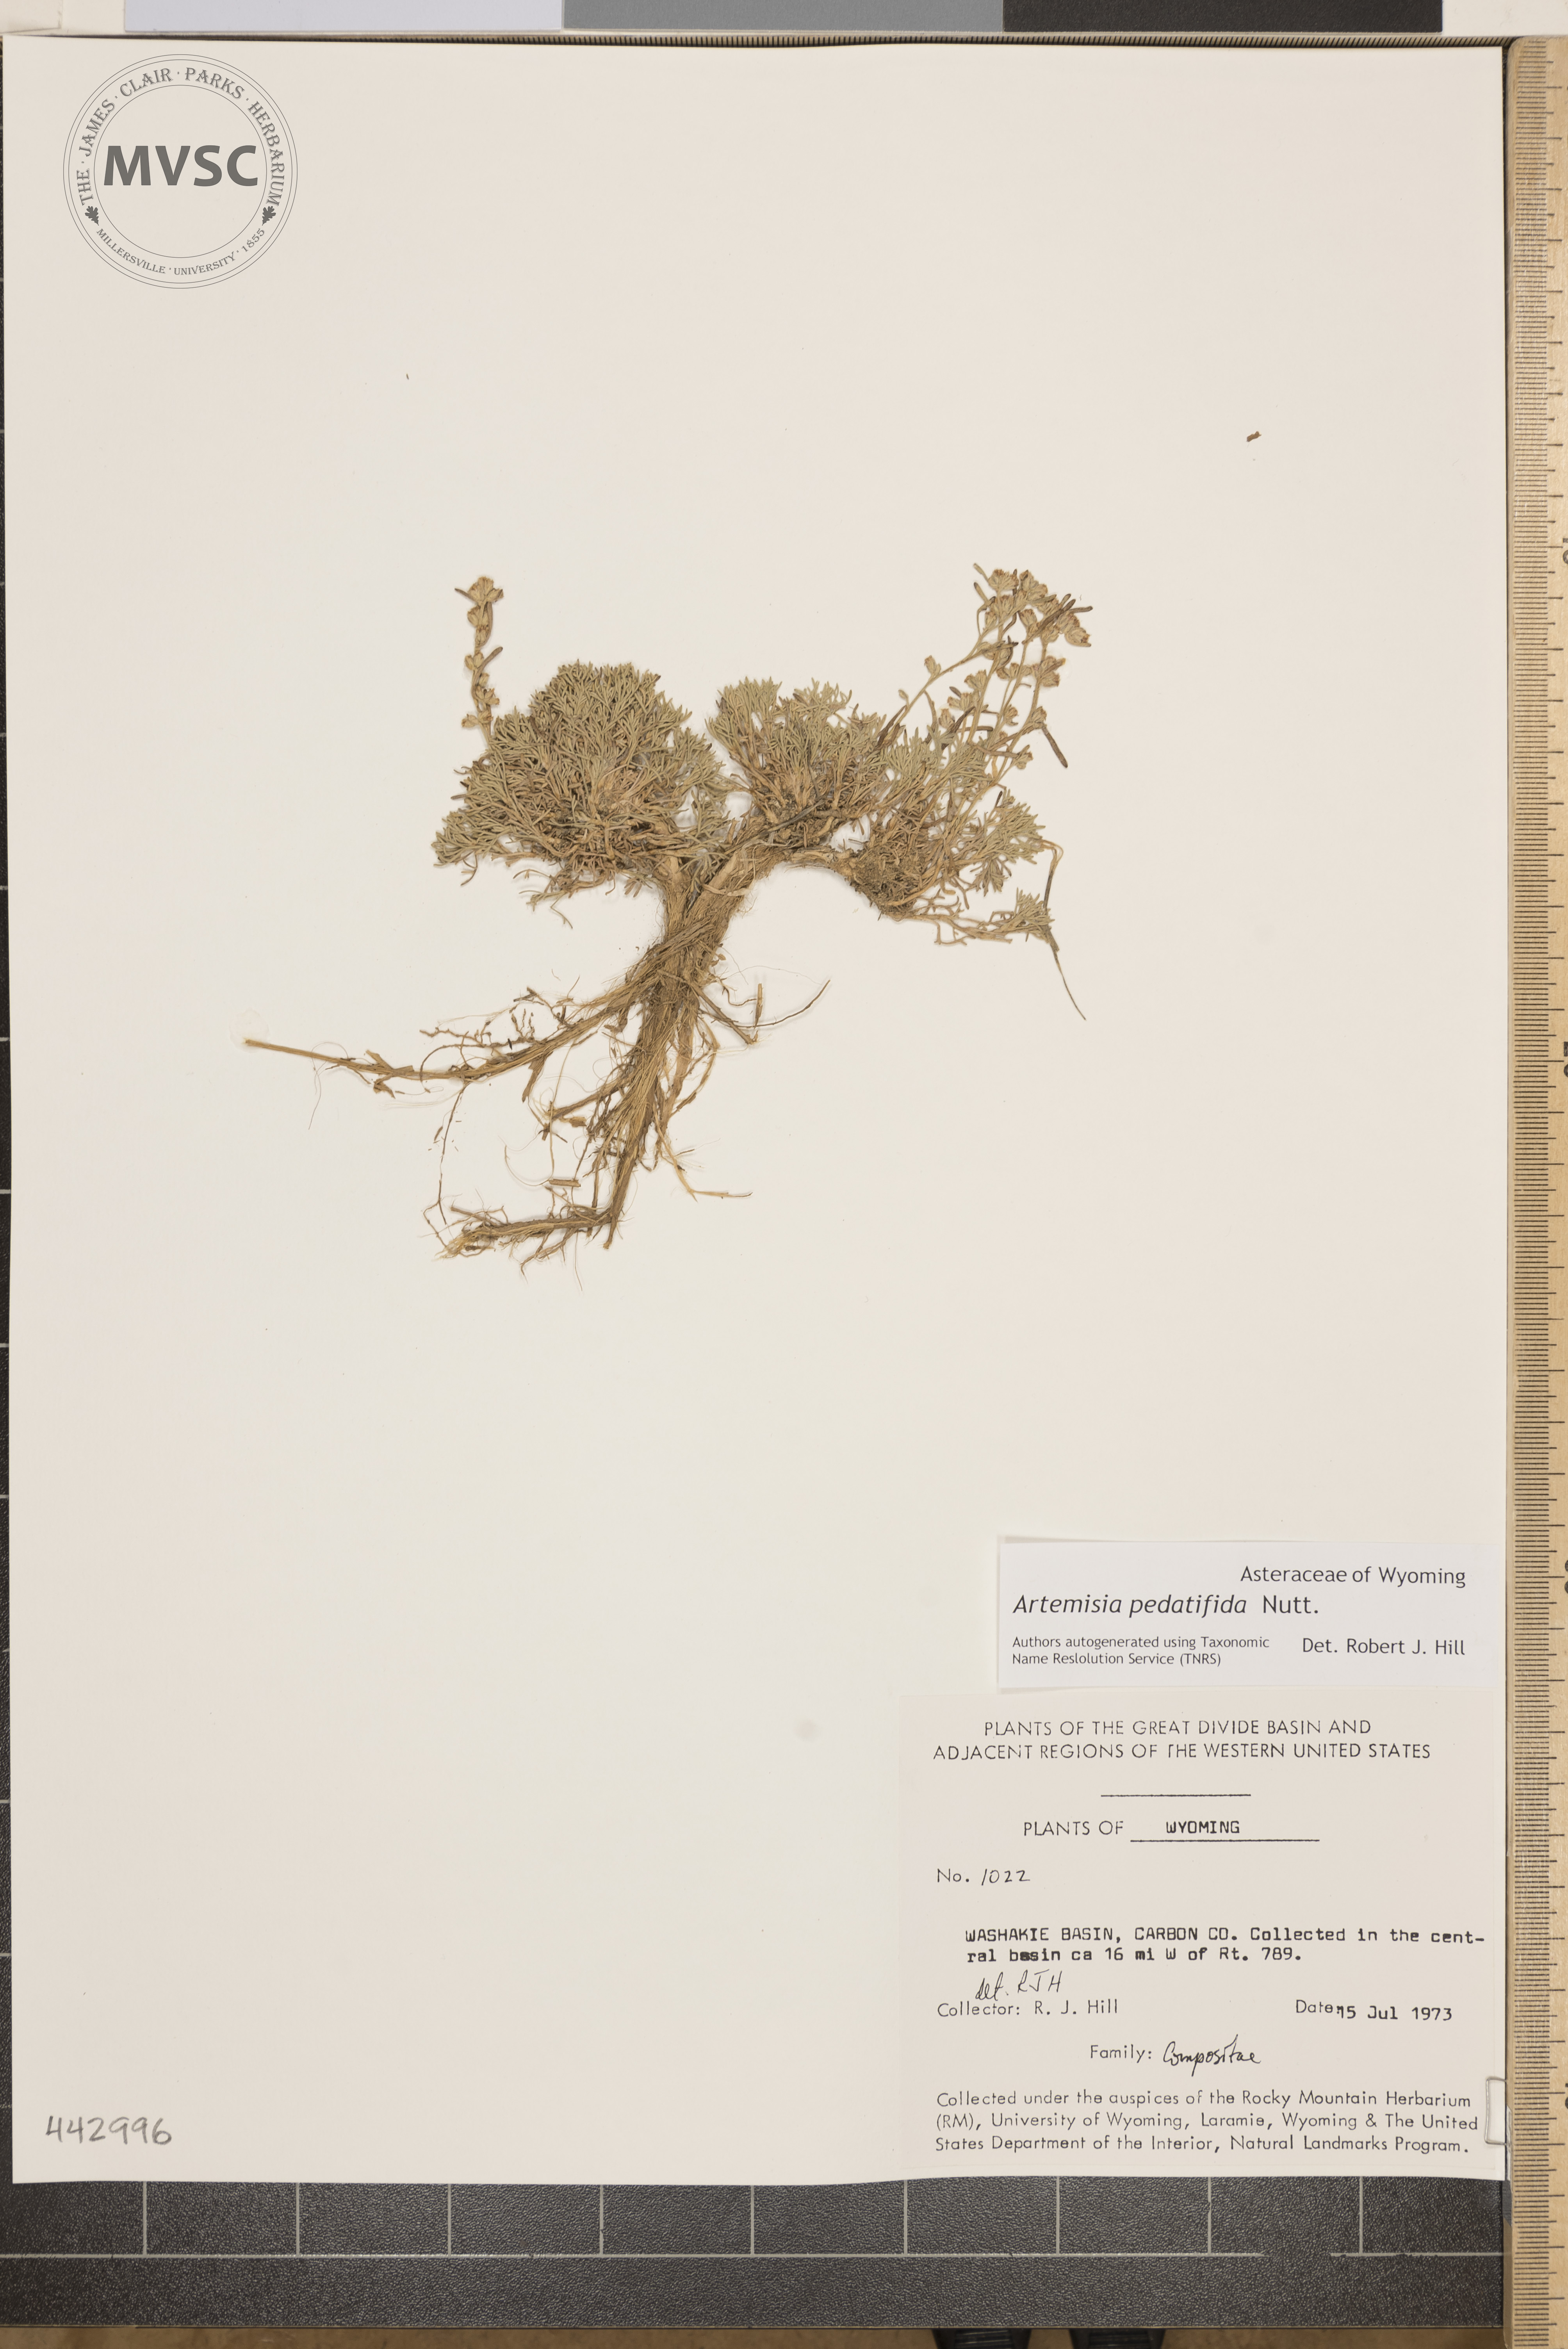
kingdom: Plantae
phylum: Tracheophyta
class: Magnoliopsida
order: Asterales
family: Asteraceae
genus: Artemisia
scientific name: Artemisia pedatifida
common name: Matted sagewort
